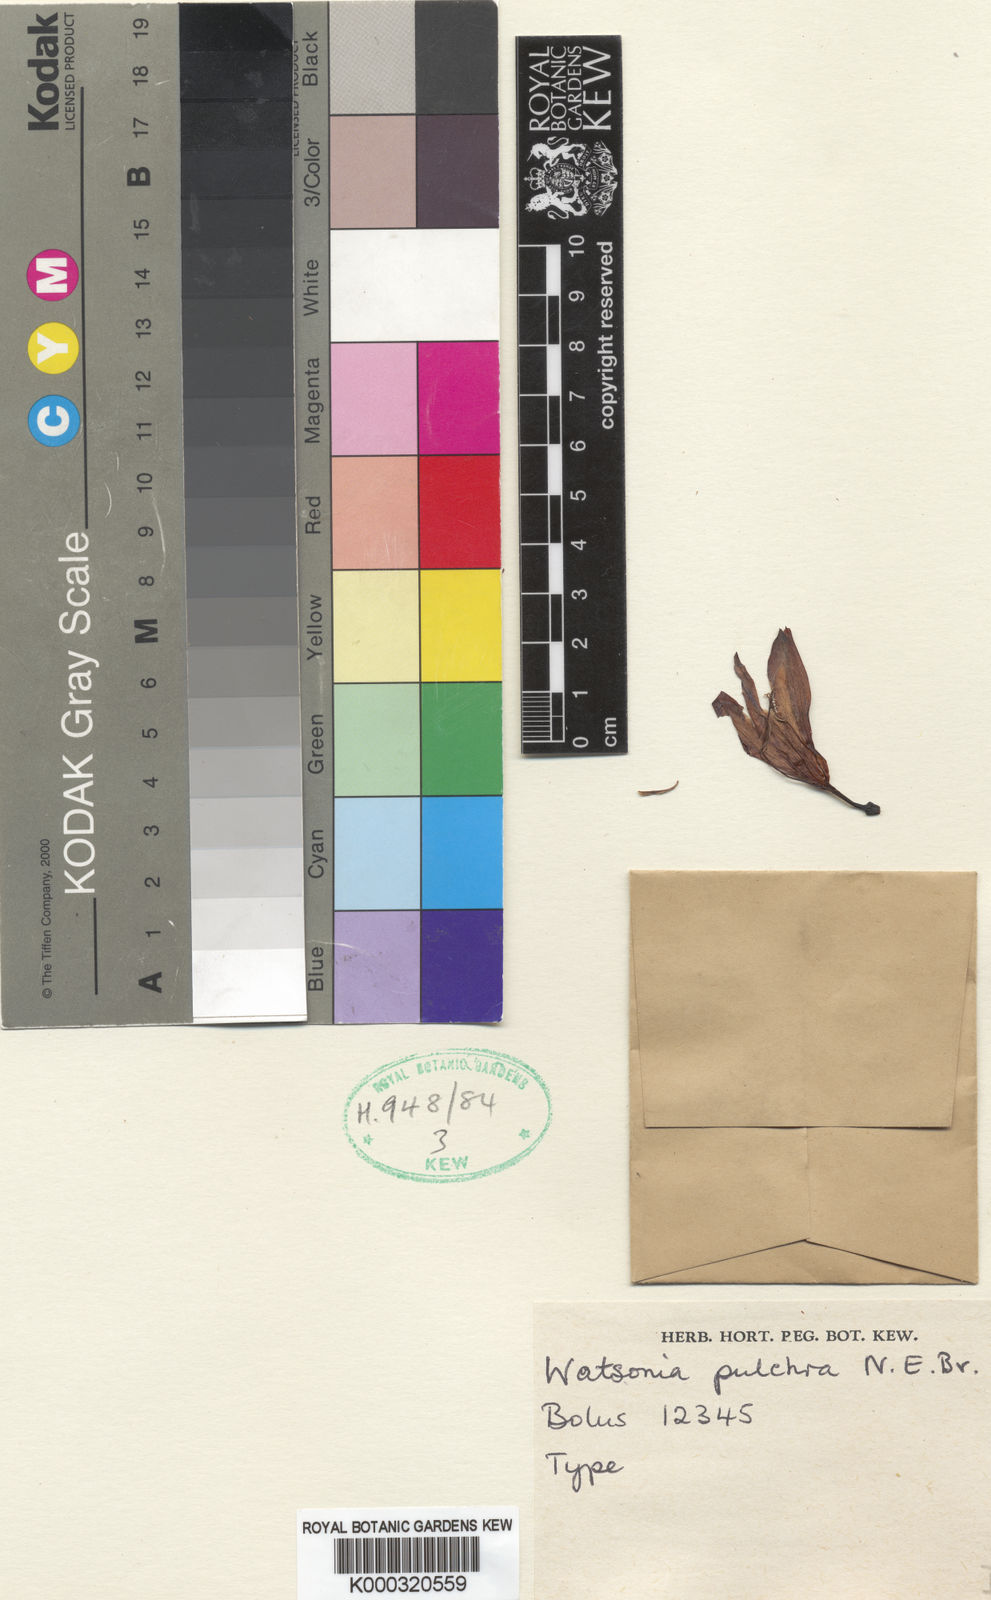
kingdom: Plantae
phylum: Tracheophyta
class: Liliopsida
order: Asparagales
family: Iridaceae
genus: Watsonia
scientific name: Watsonia pulchra
